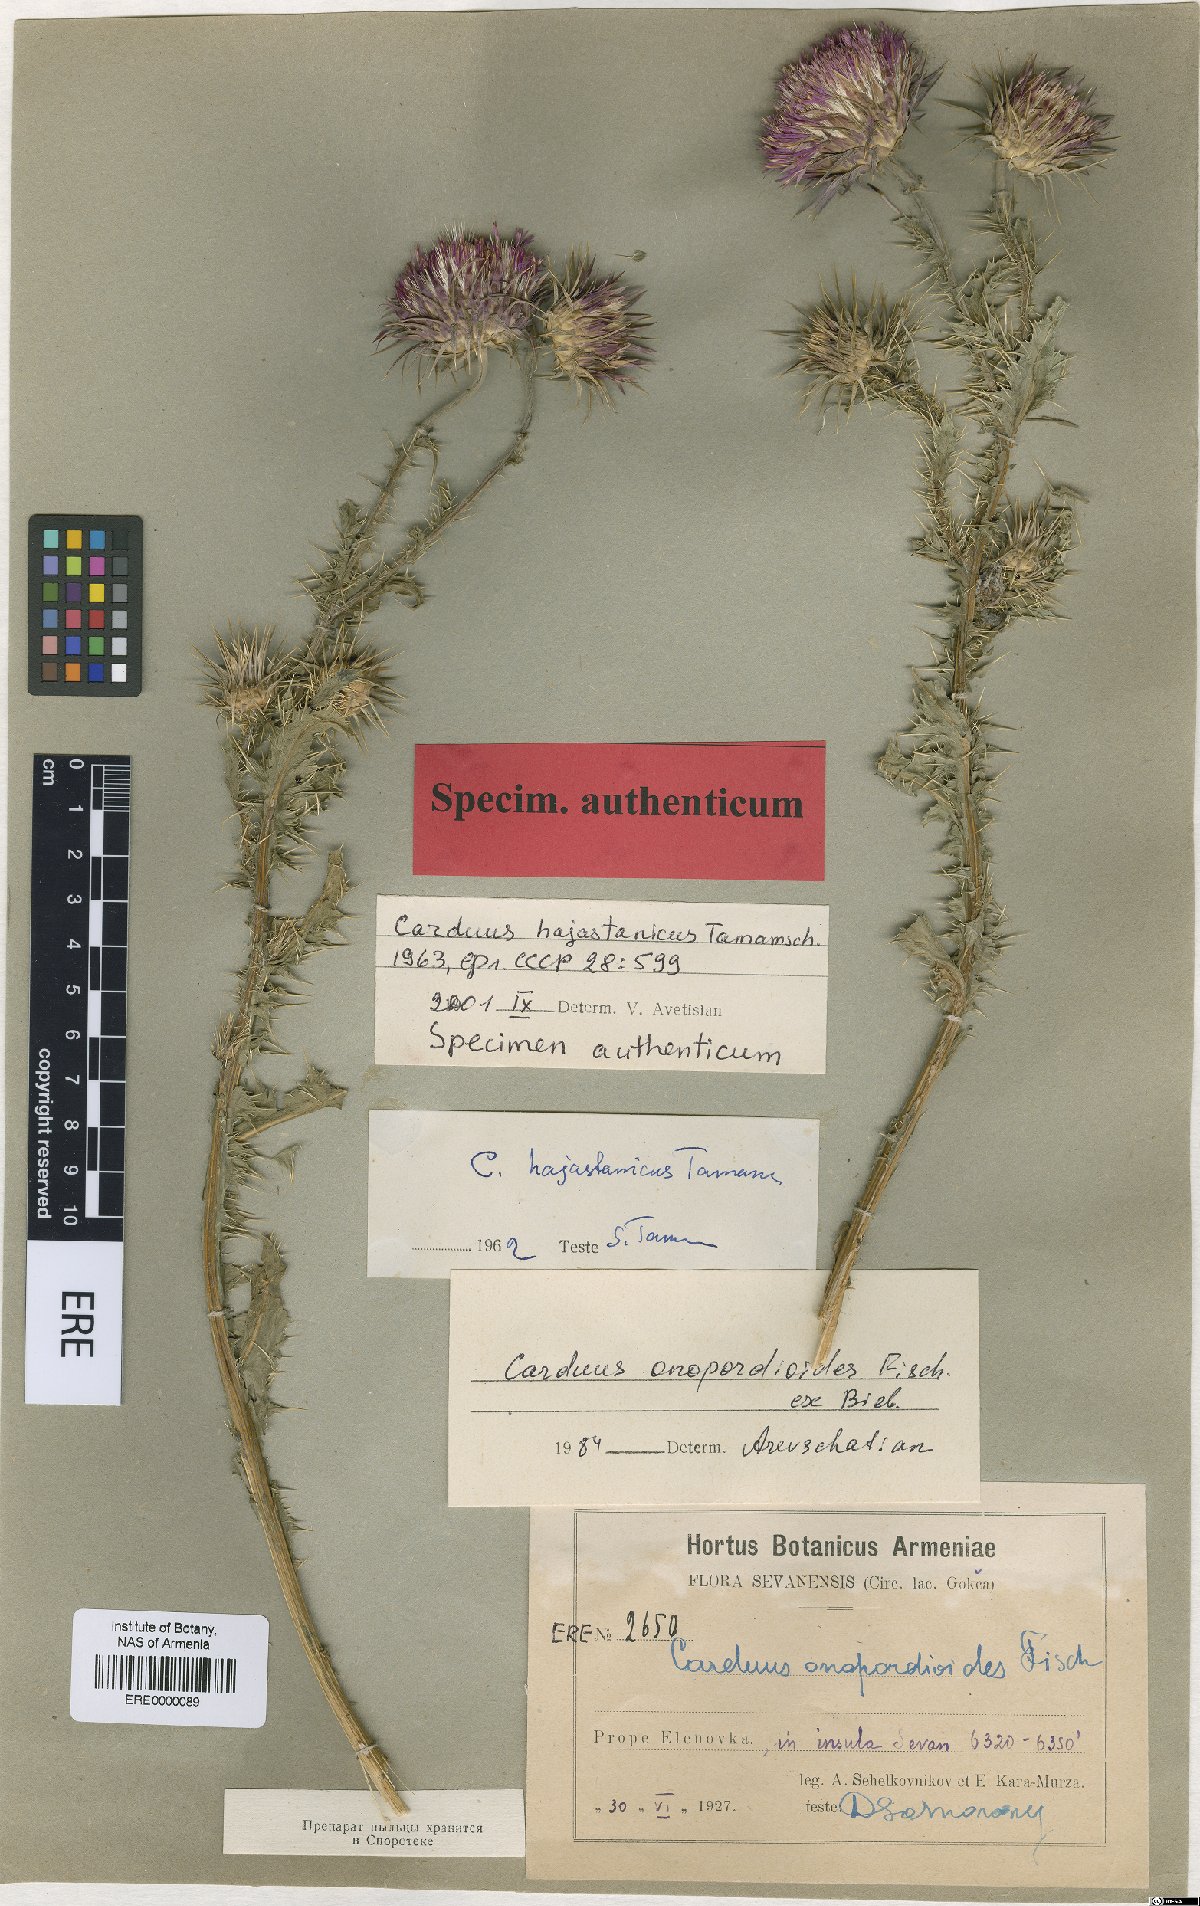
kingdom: Plantae
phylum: Tracheophyta
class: Magnoliopsida
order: Asterales
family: Asteraceae
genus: Carduus
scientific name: Carduus onopordioides
